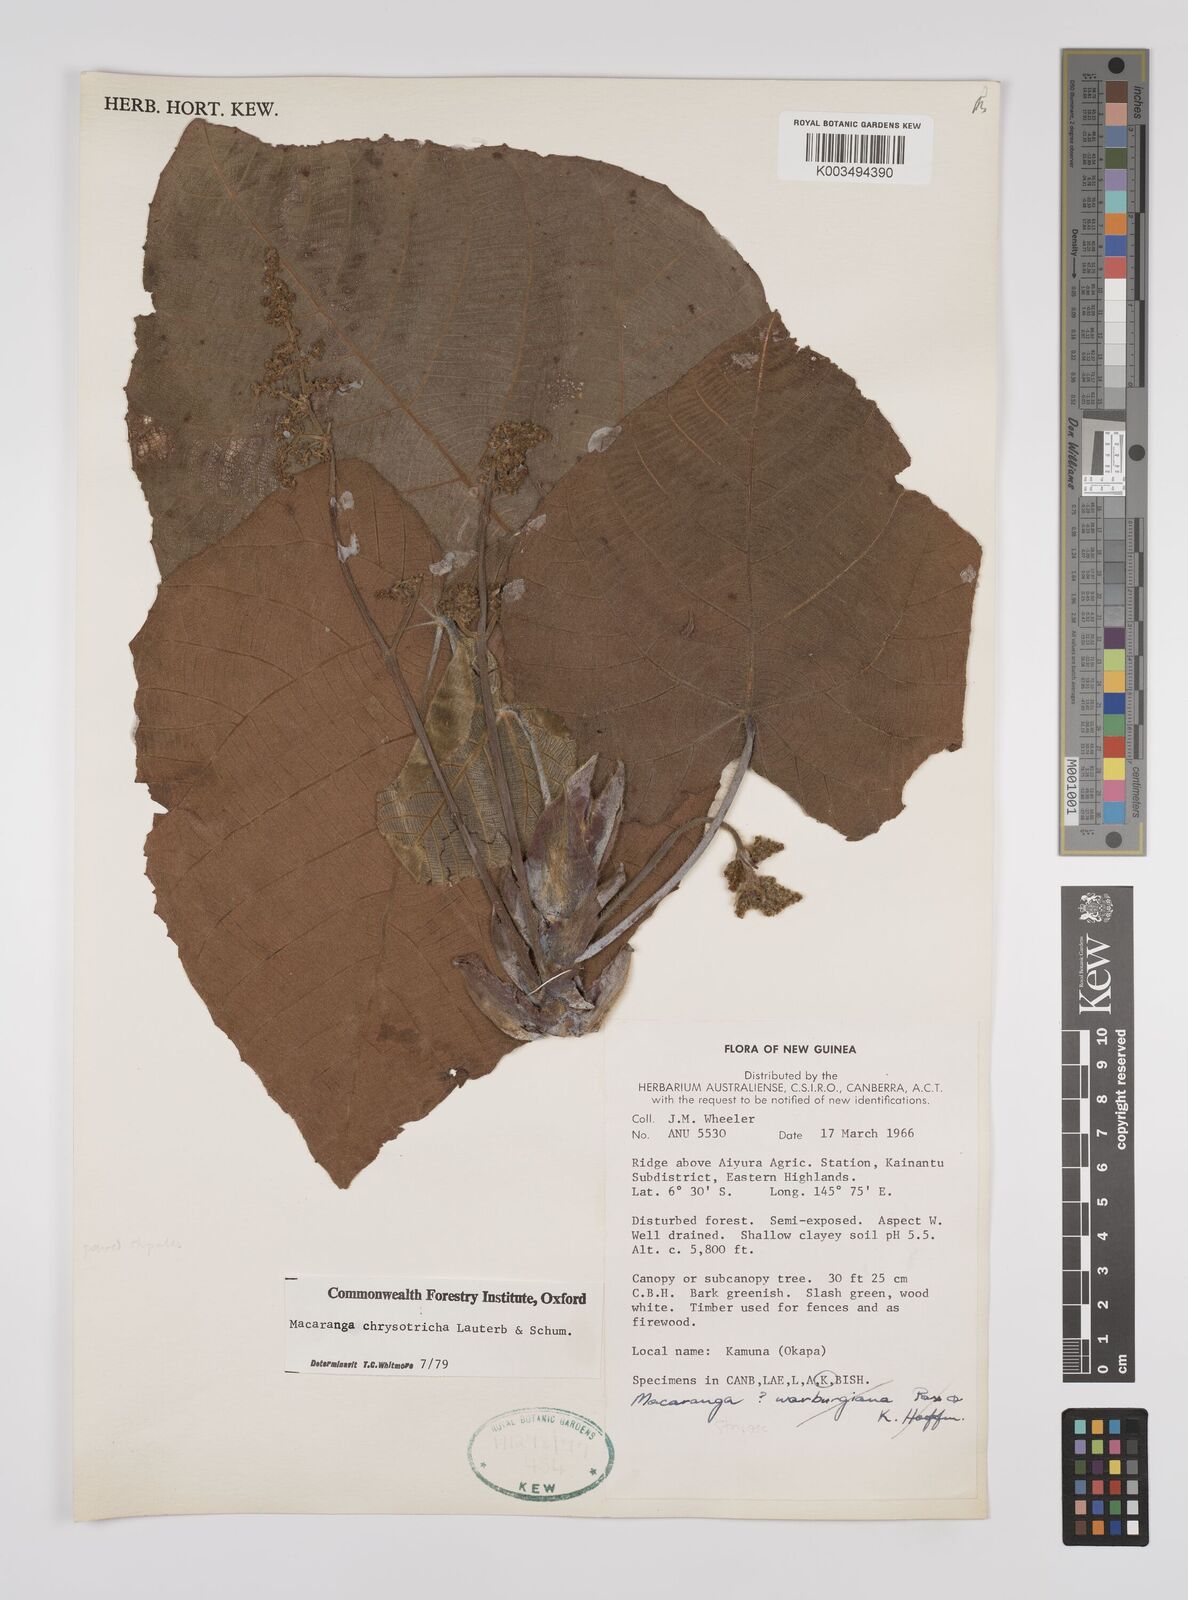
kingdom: Plantae
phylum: Tracheophyta
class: Magnoliopsida
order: Malpighiales
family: Euphorbiaceae
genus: Macaranga
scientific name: Macaranga chrysotricha
